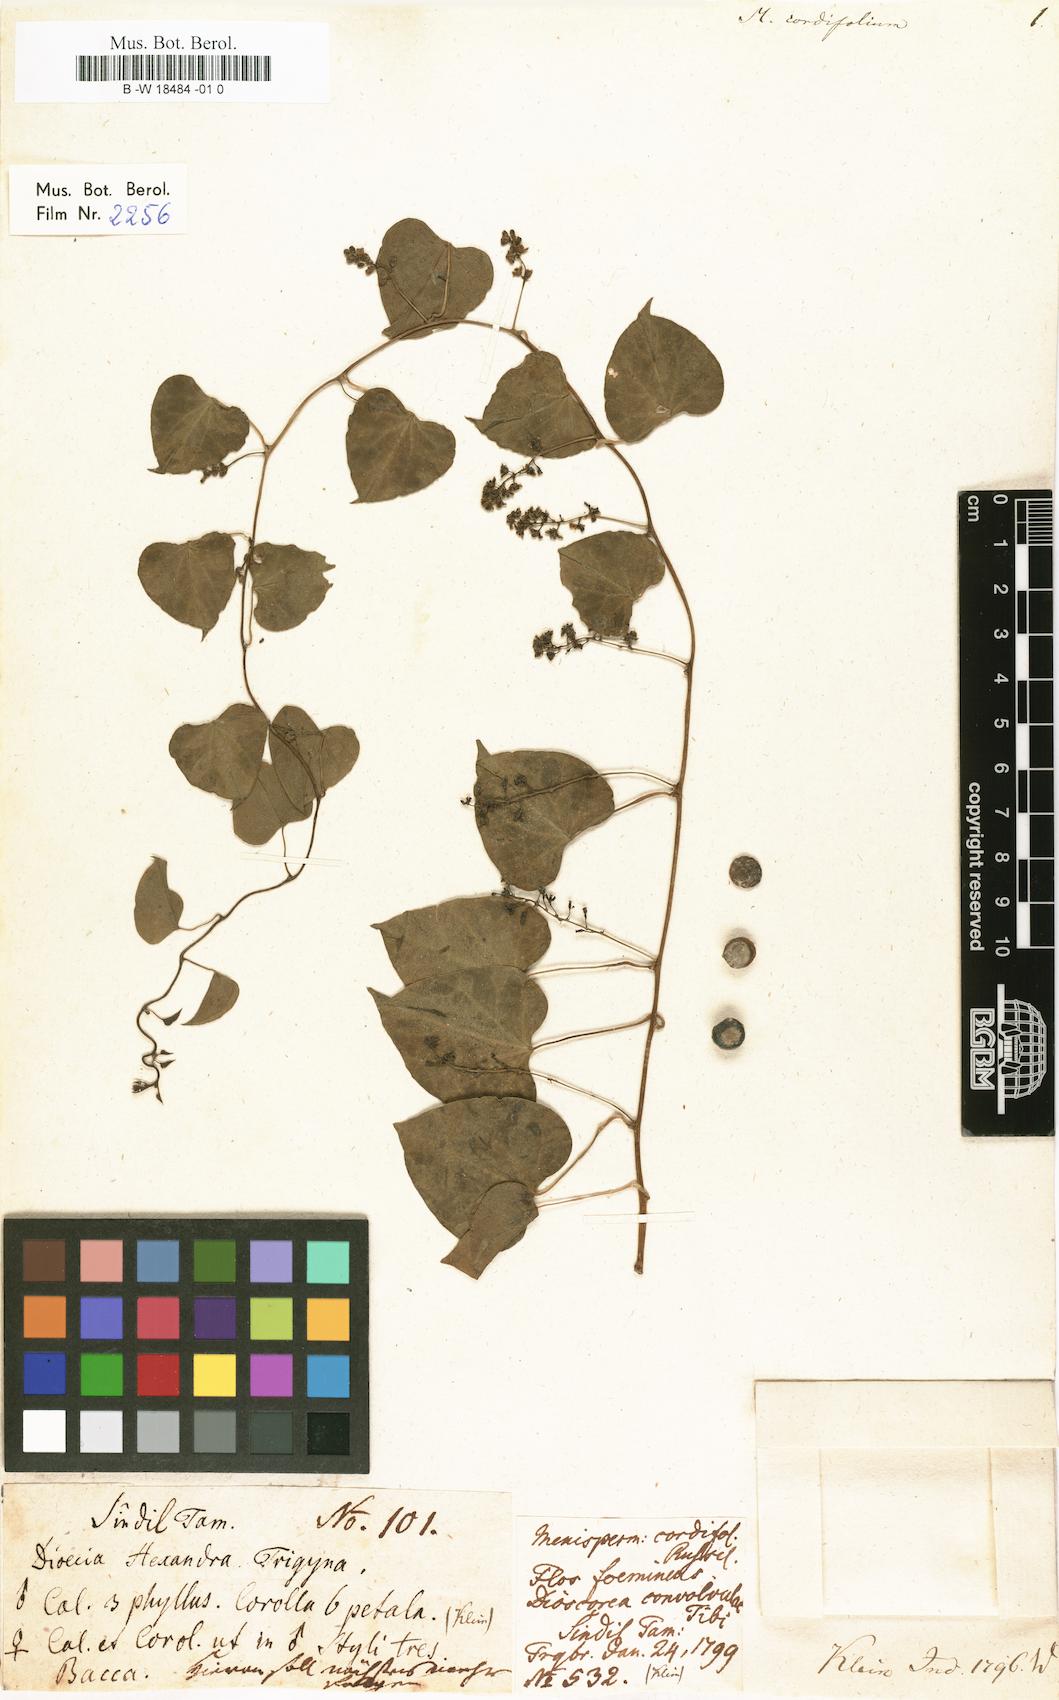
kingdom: Plantae
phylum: Tracheophyta
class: Magnoliopsida
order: Ranunculales
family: Menispermaceae
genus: Tinospora
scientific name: Tinospora cordifolia
